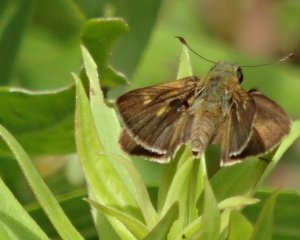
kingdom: Animalia
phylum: Arthropoda
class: Insecta
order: Lepidoptera
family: Hesperiidae
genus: Polites
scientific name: Polites egeremet
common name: Northern Broken-Dash
